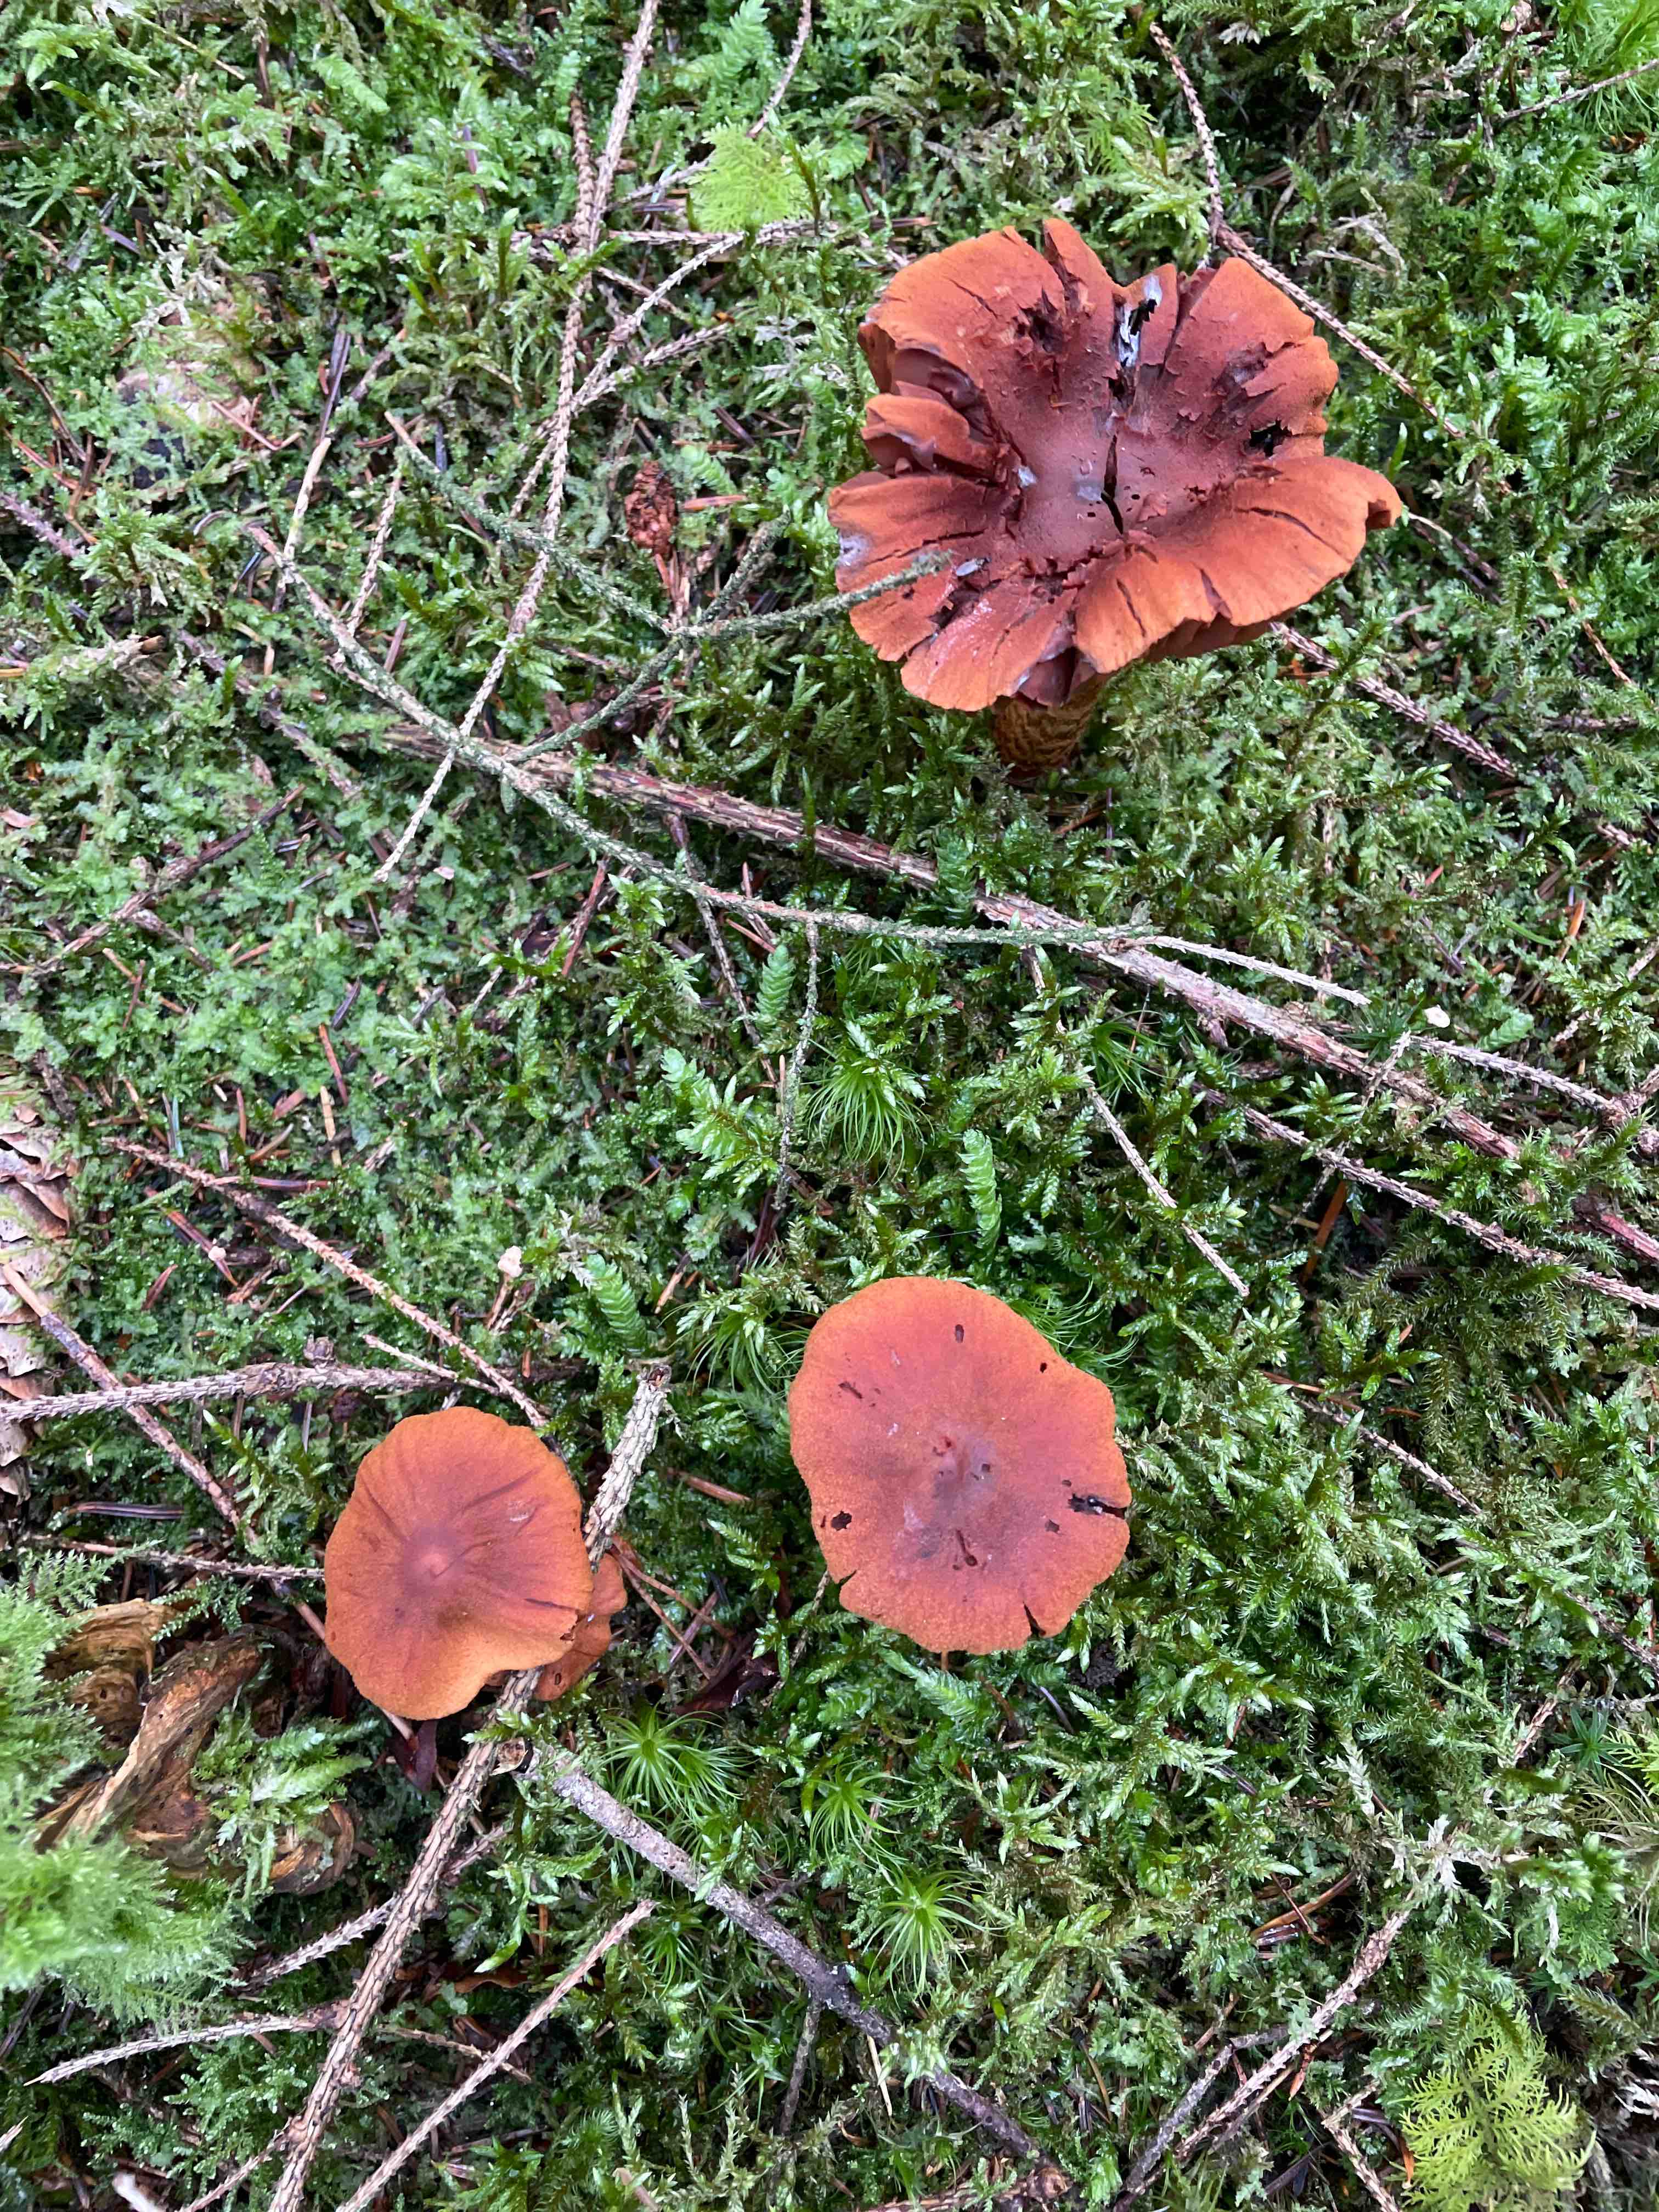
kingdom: Fungi
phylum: Basidiomycota
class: Agaricomycetes
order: Agaricales
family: Cortinariaceae
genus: Cortinarius
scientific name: Cortinarius rubellus
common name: puklet gift-slørhat
